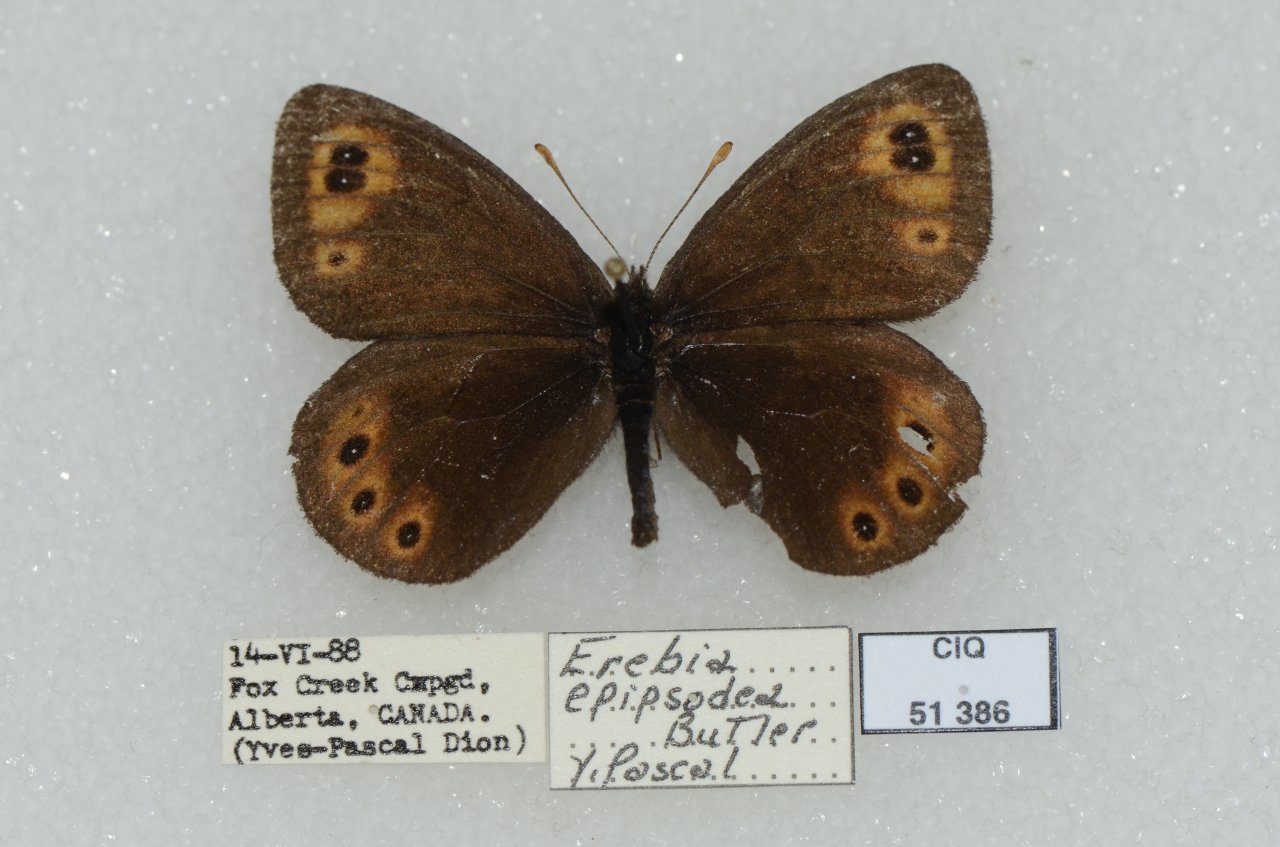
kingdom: Animalia
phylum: Arthropoda
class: Insecta
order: Lepidoptera
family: Nymphalidae
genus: Erebia
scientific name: Erebia epipsodea
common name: Common Alpine
